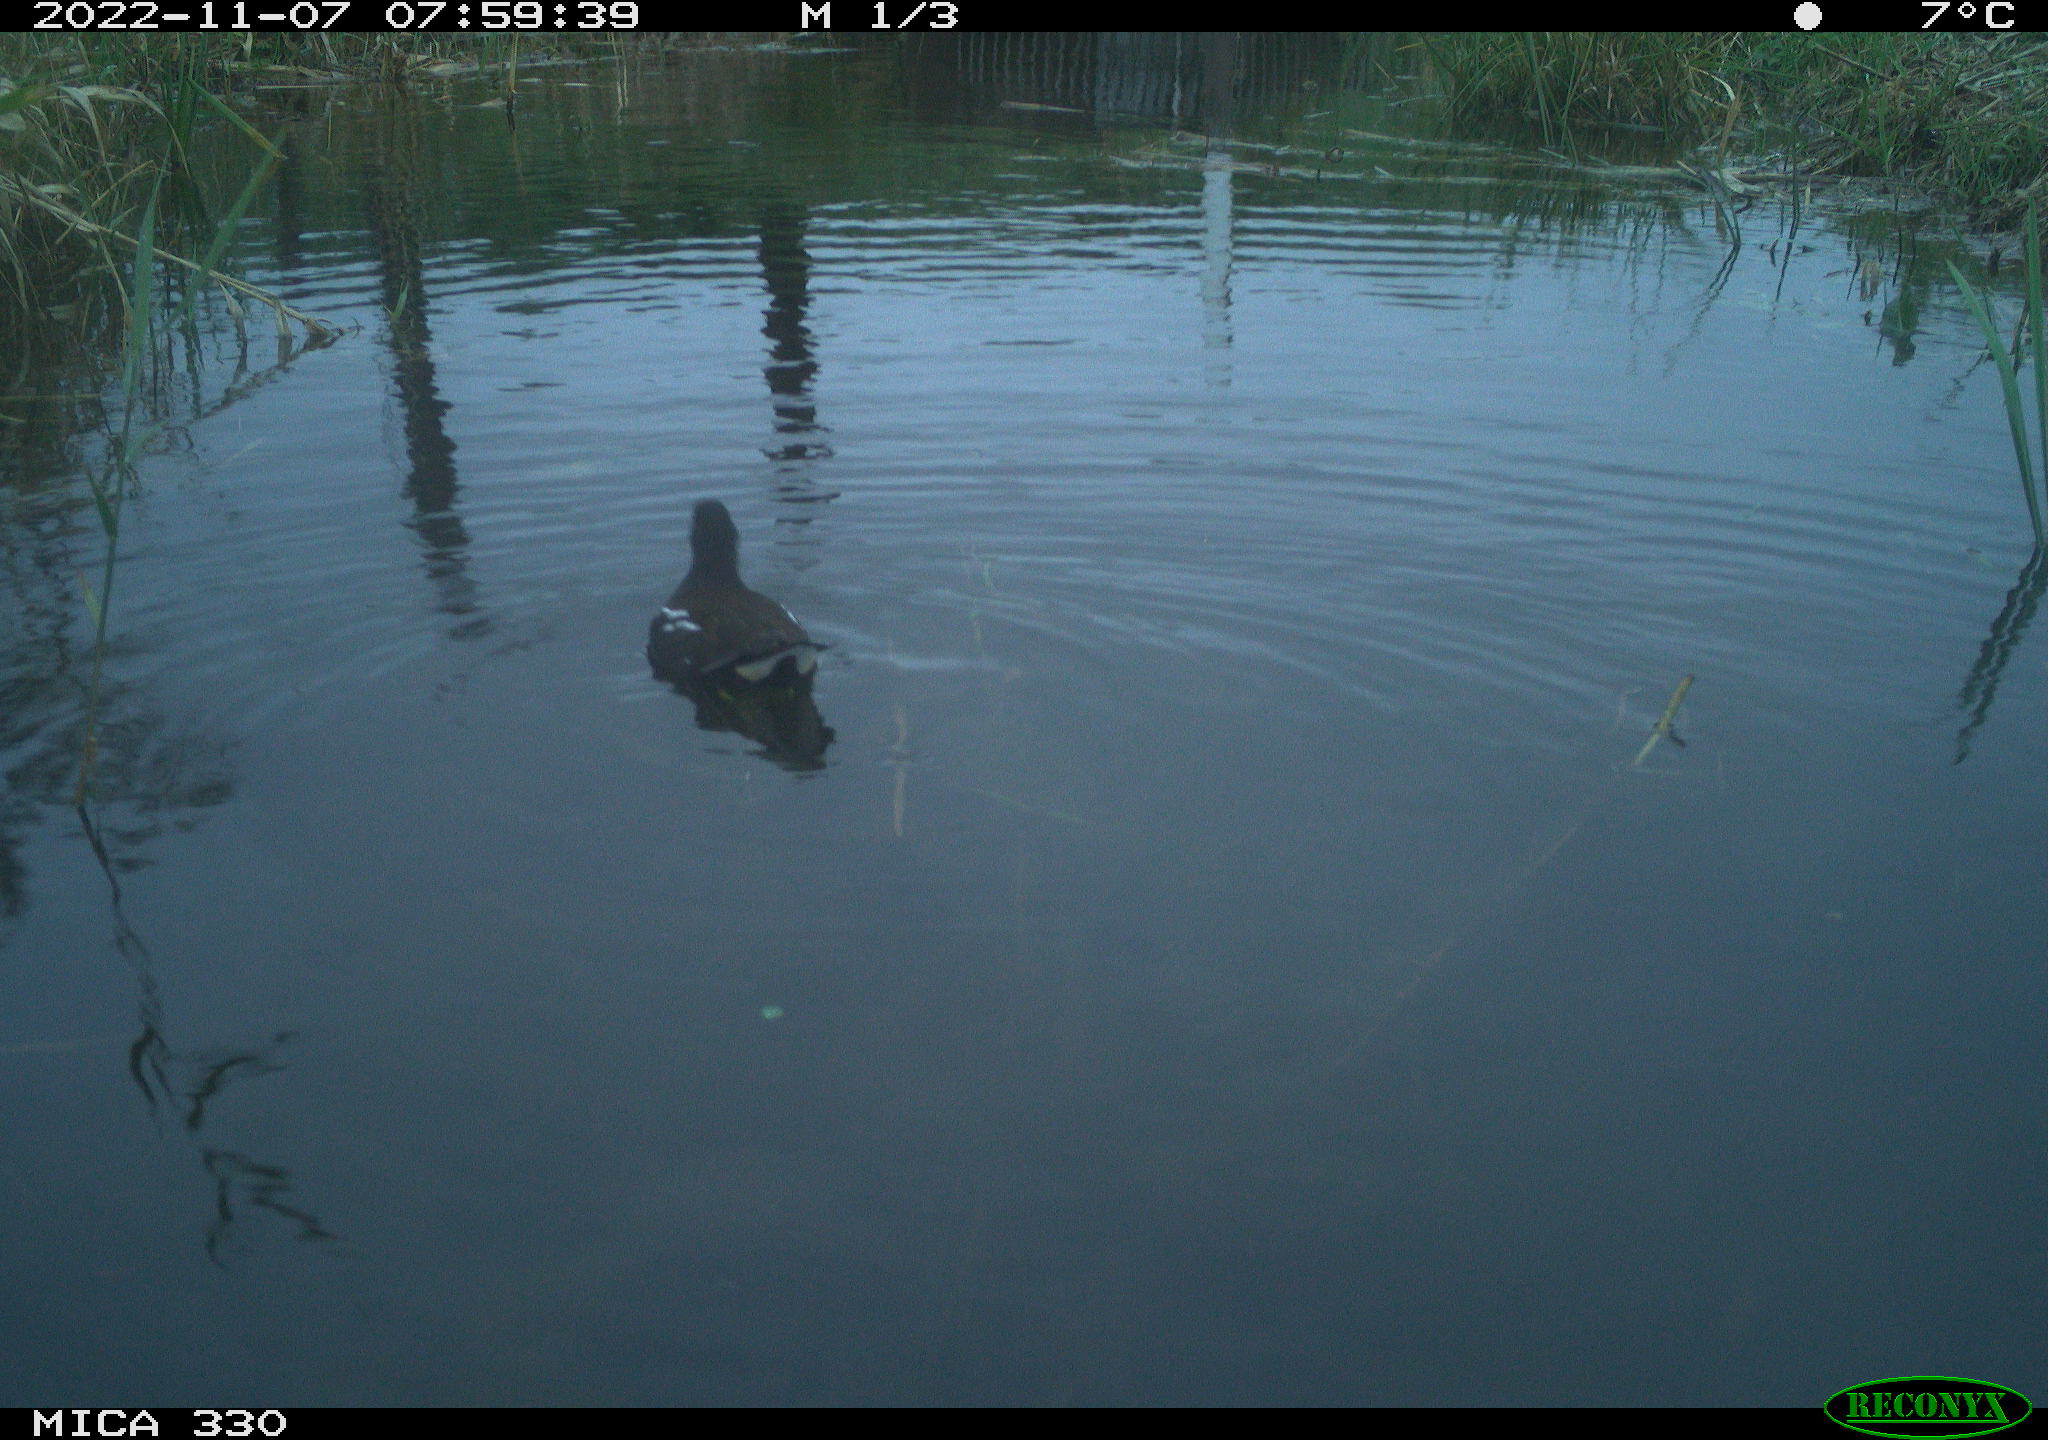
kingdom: Animalia
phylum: Chordata
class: Aves
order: Gruiformes
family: Rallidae
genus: Gallinula
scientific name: Gallinula chloropus
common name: Common moorhen
